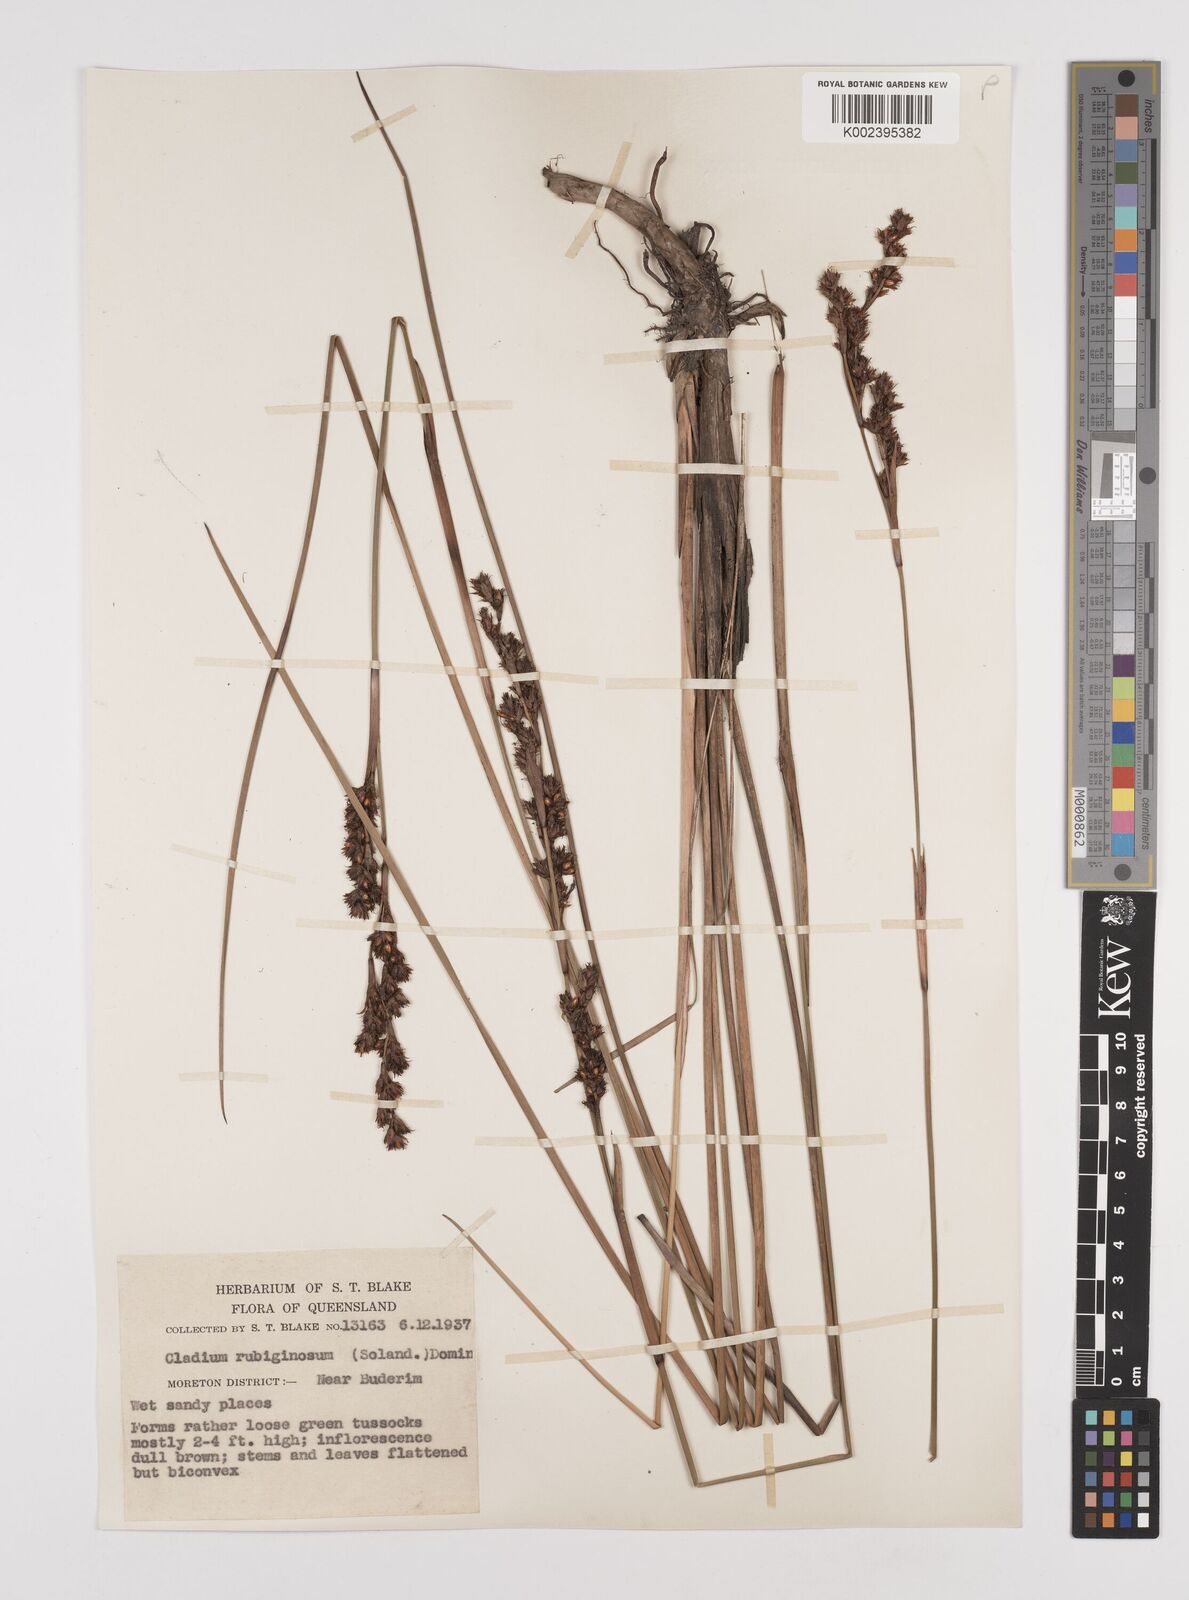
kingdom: Plantae
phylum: Tracheophyta
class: Liliopsida
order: Poales
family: Cyperaceae
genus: Machaerina
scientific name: Machaerina rubiginosa
